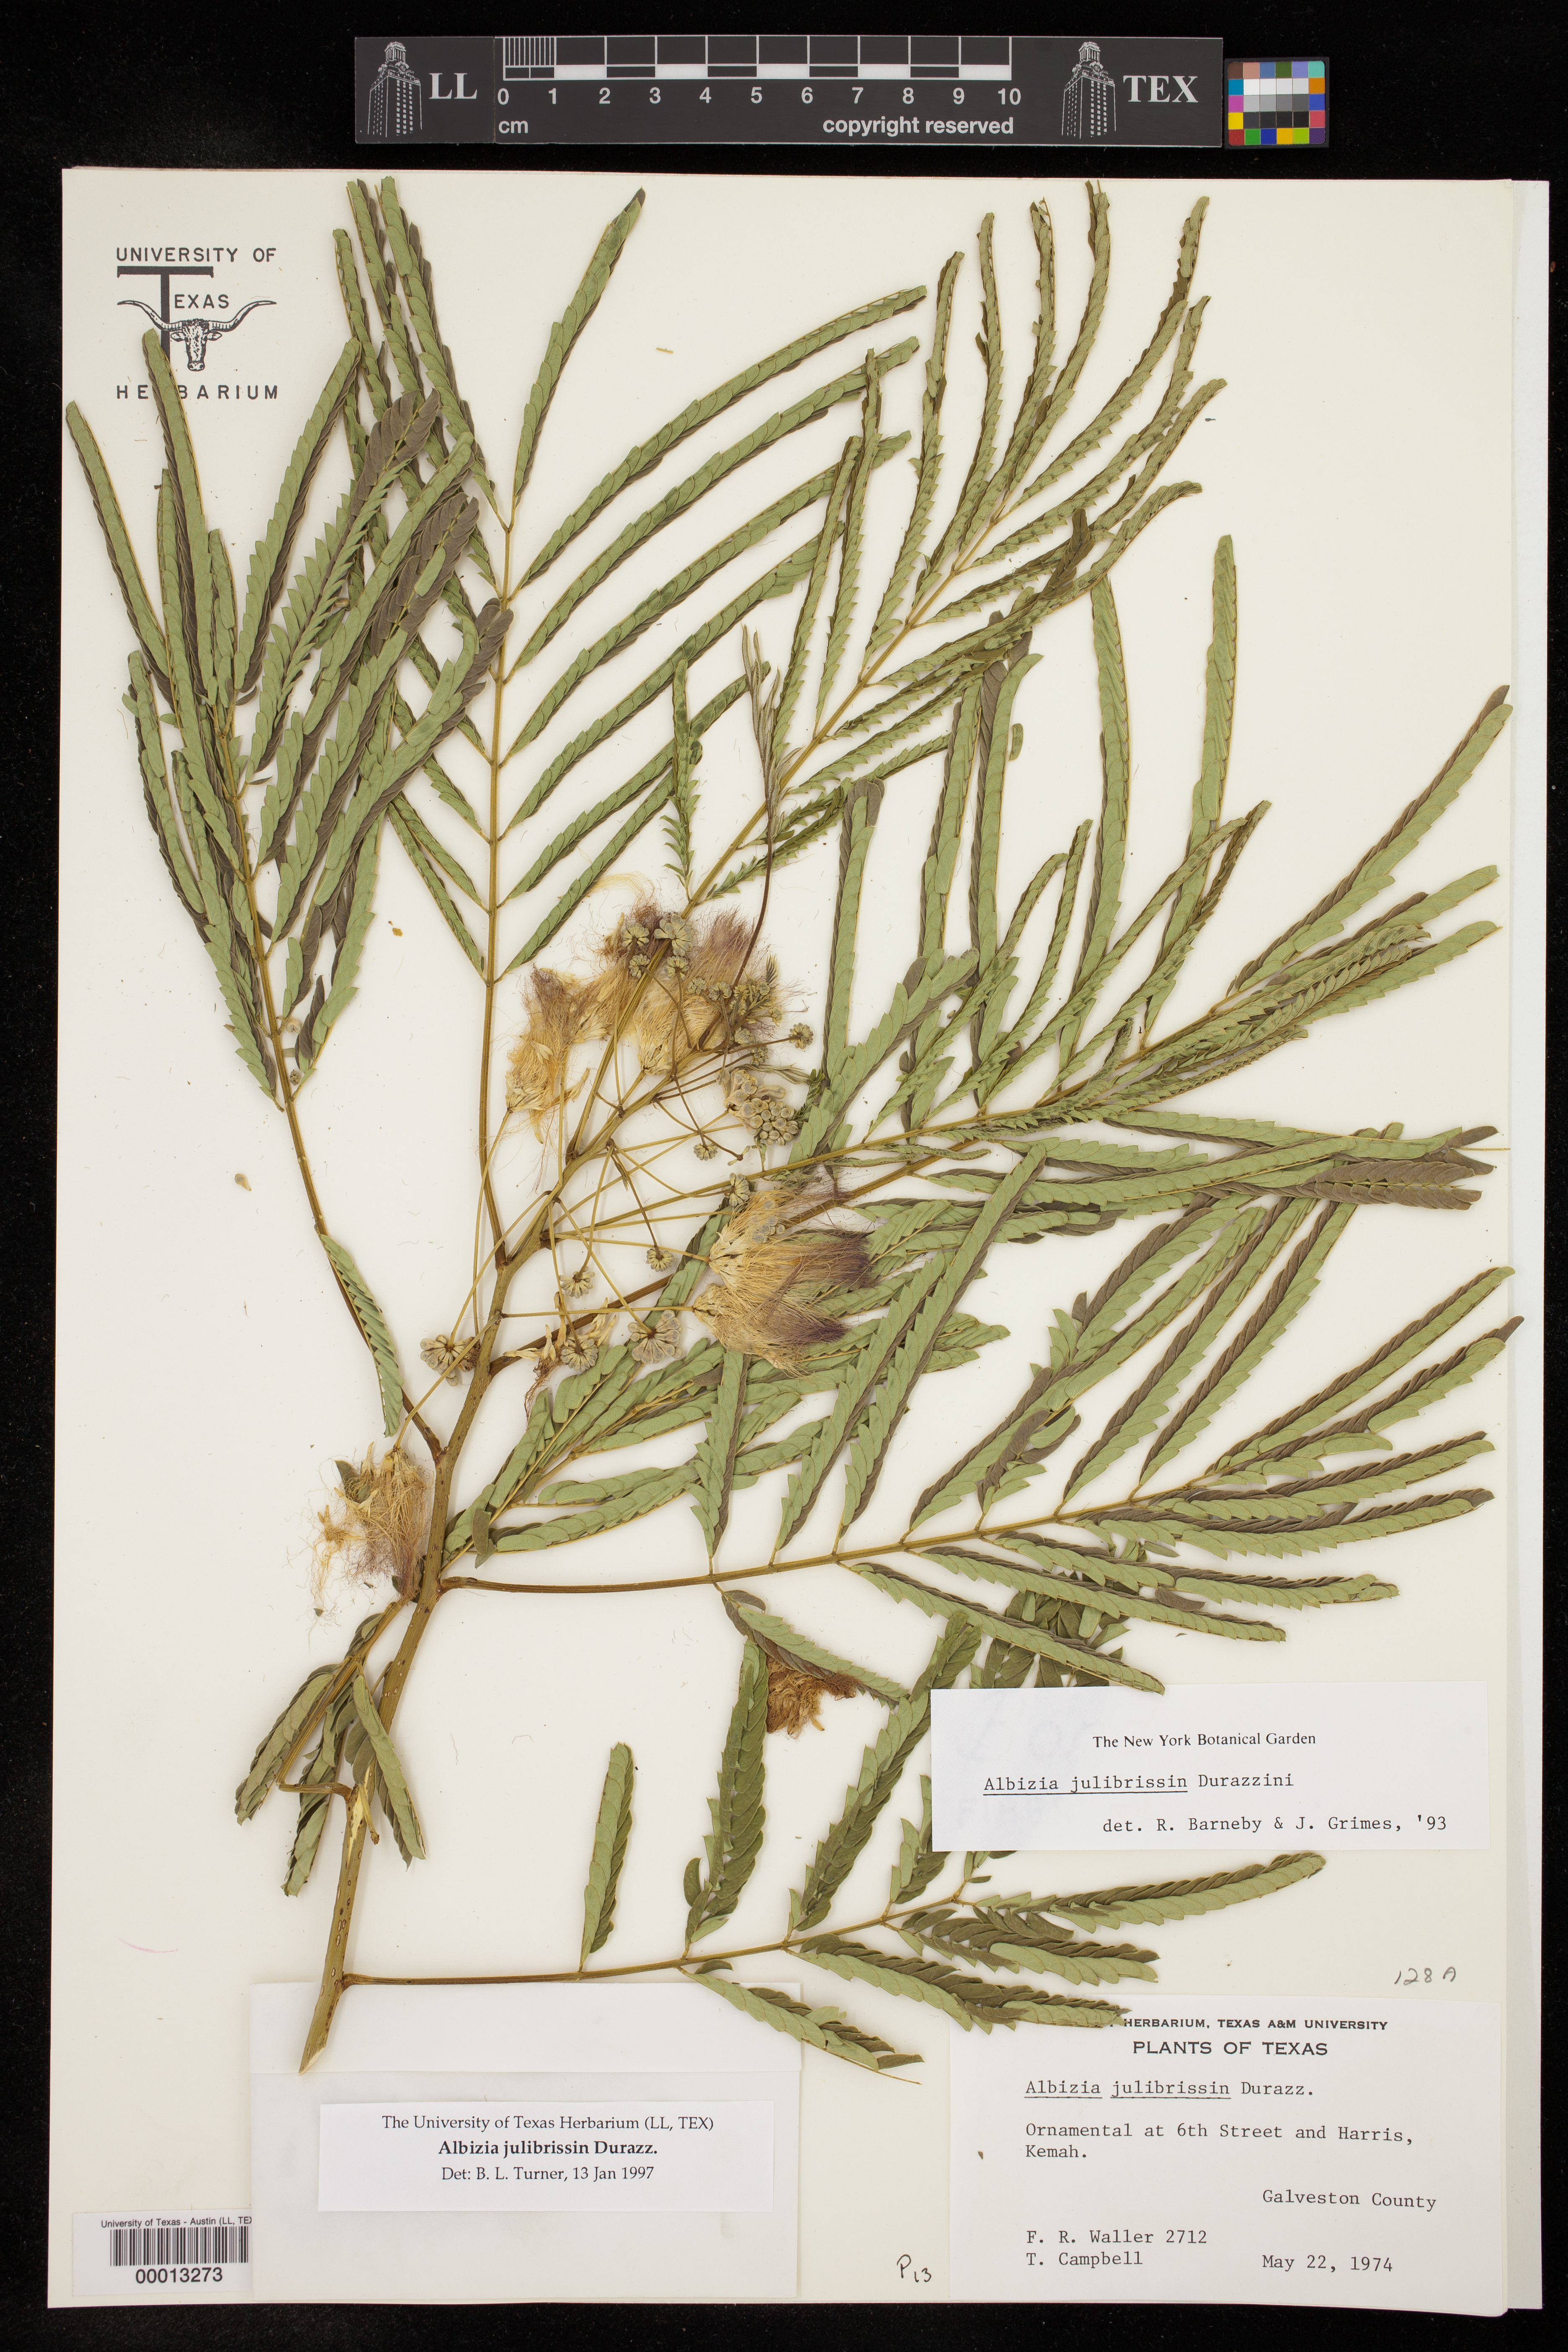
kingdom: Plantae
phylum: Tracheophyta
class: Magnoliopsida
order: Fabales
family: Fabaceae
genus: Albizia
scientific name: Albizia julibrissin
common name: Silktree
